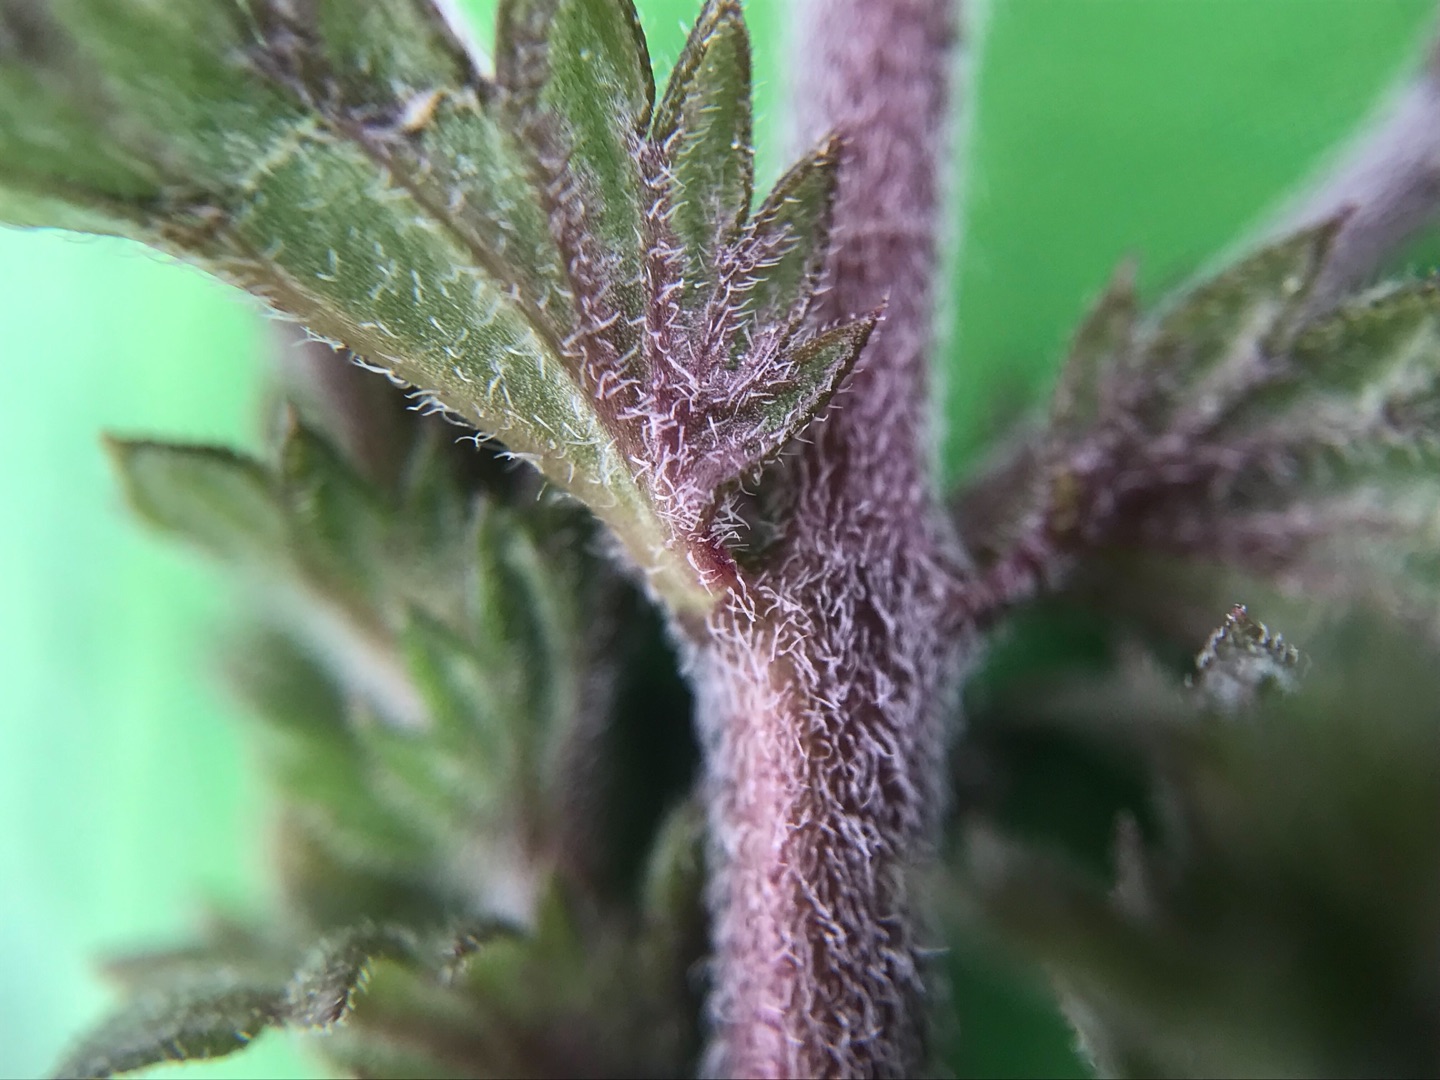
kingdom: Plantae
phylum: Tracheophyta
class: Magnoliopsida
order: Lamiales
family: Orobanchaceae
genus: Euphrasia
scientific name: Euphrasia nemorosa
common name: Kort øjentrøst
